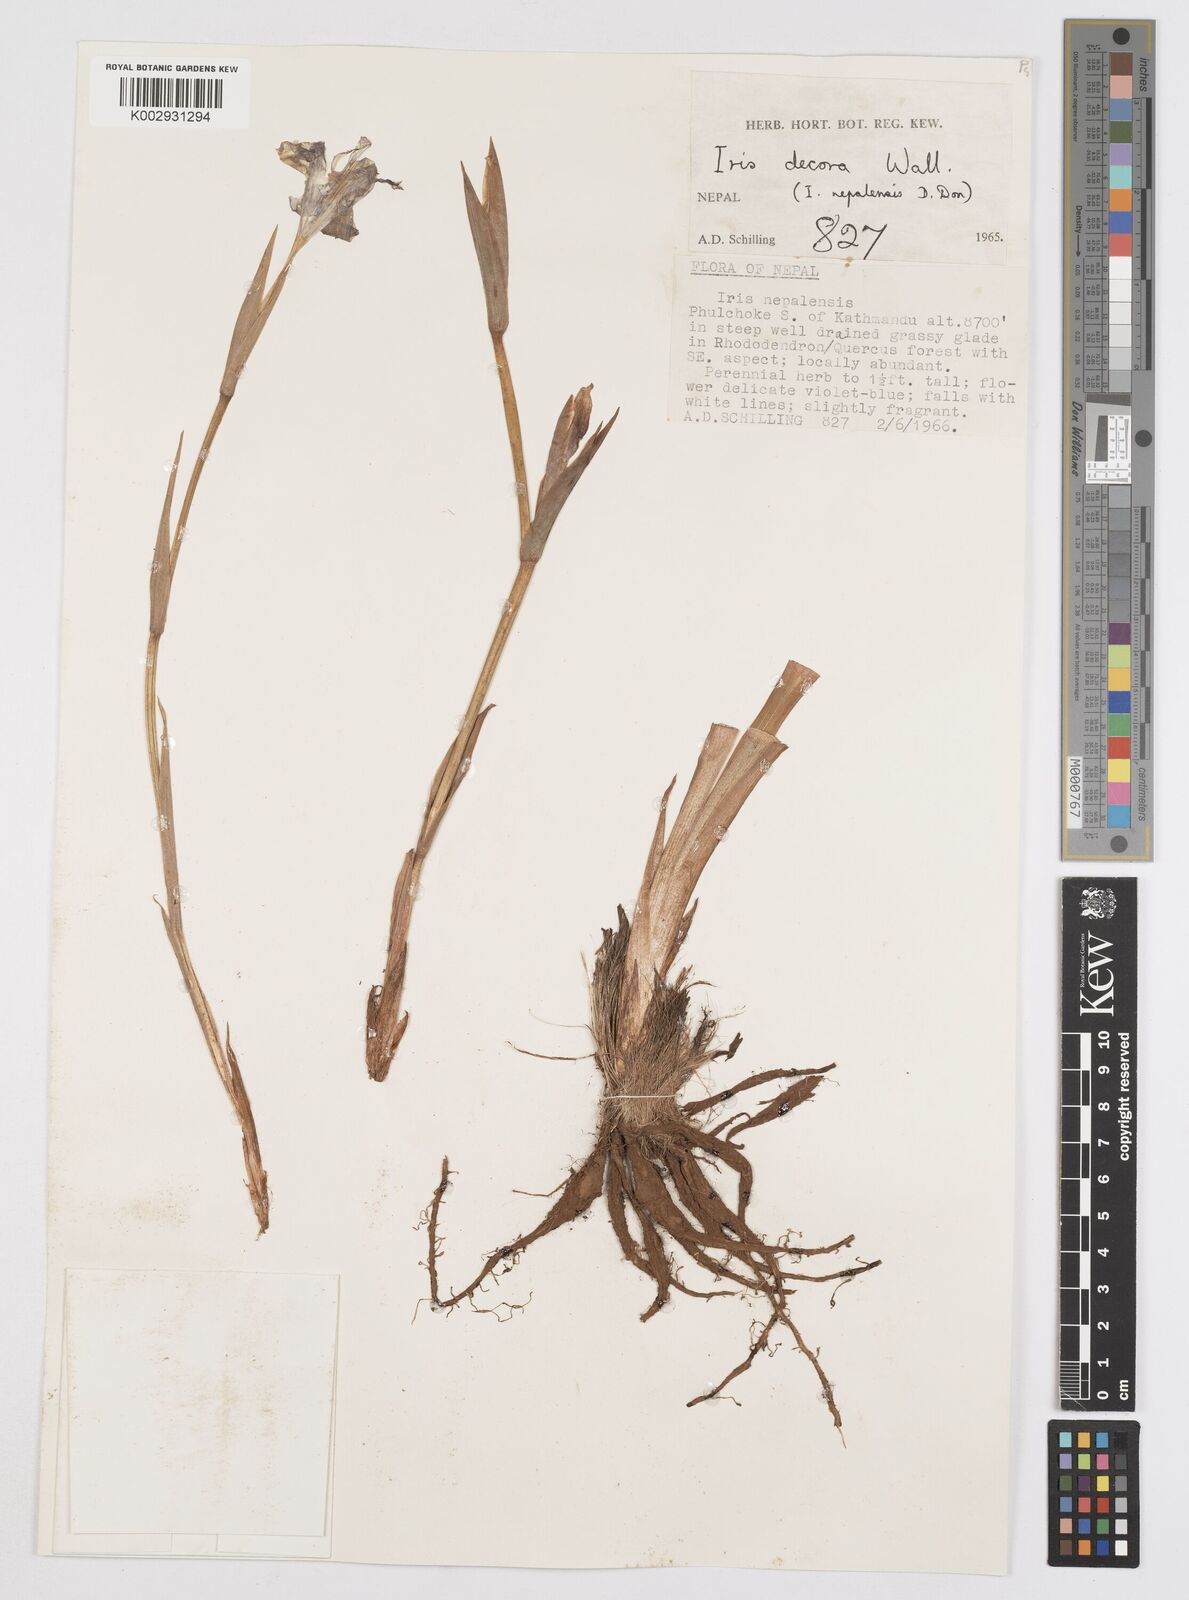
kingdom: Plantae
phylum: Tracheophyta
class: Liliopsida
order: Asparagales
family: Iridaceae
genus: Iris
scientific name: Iris decora
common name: Nepal iris
